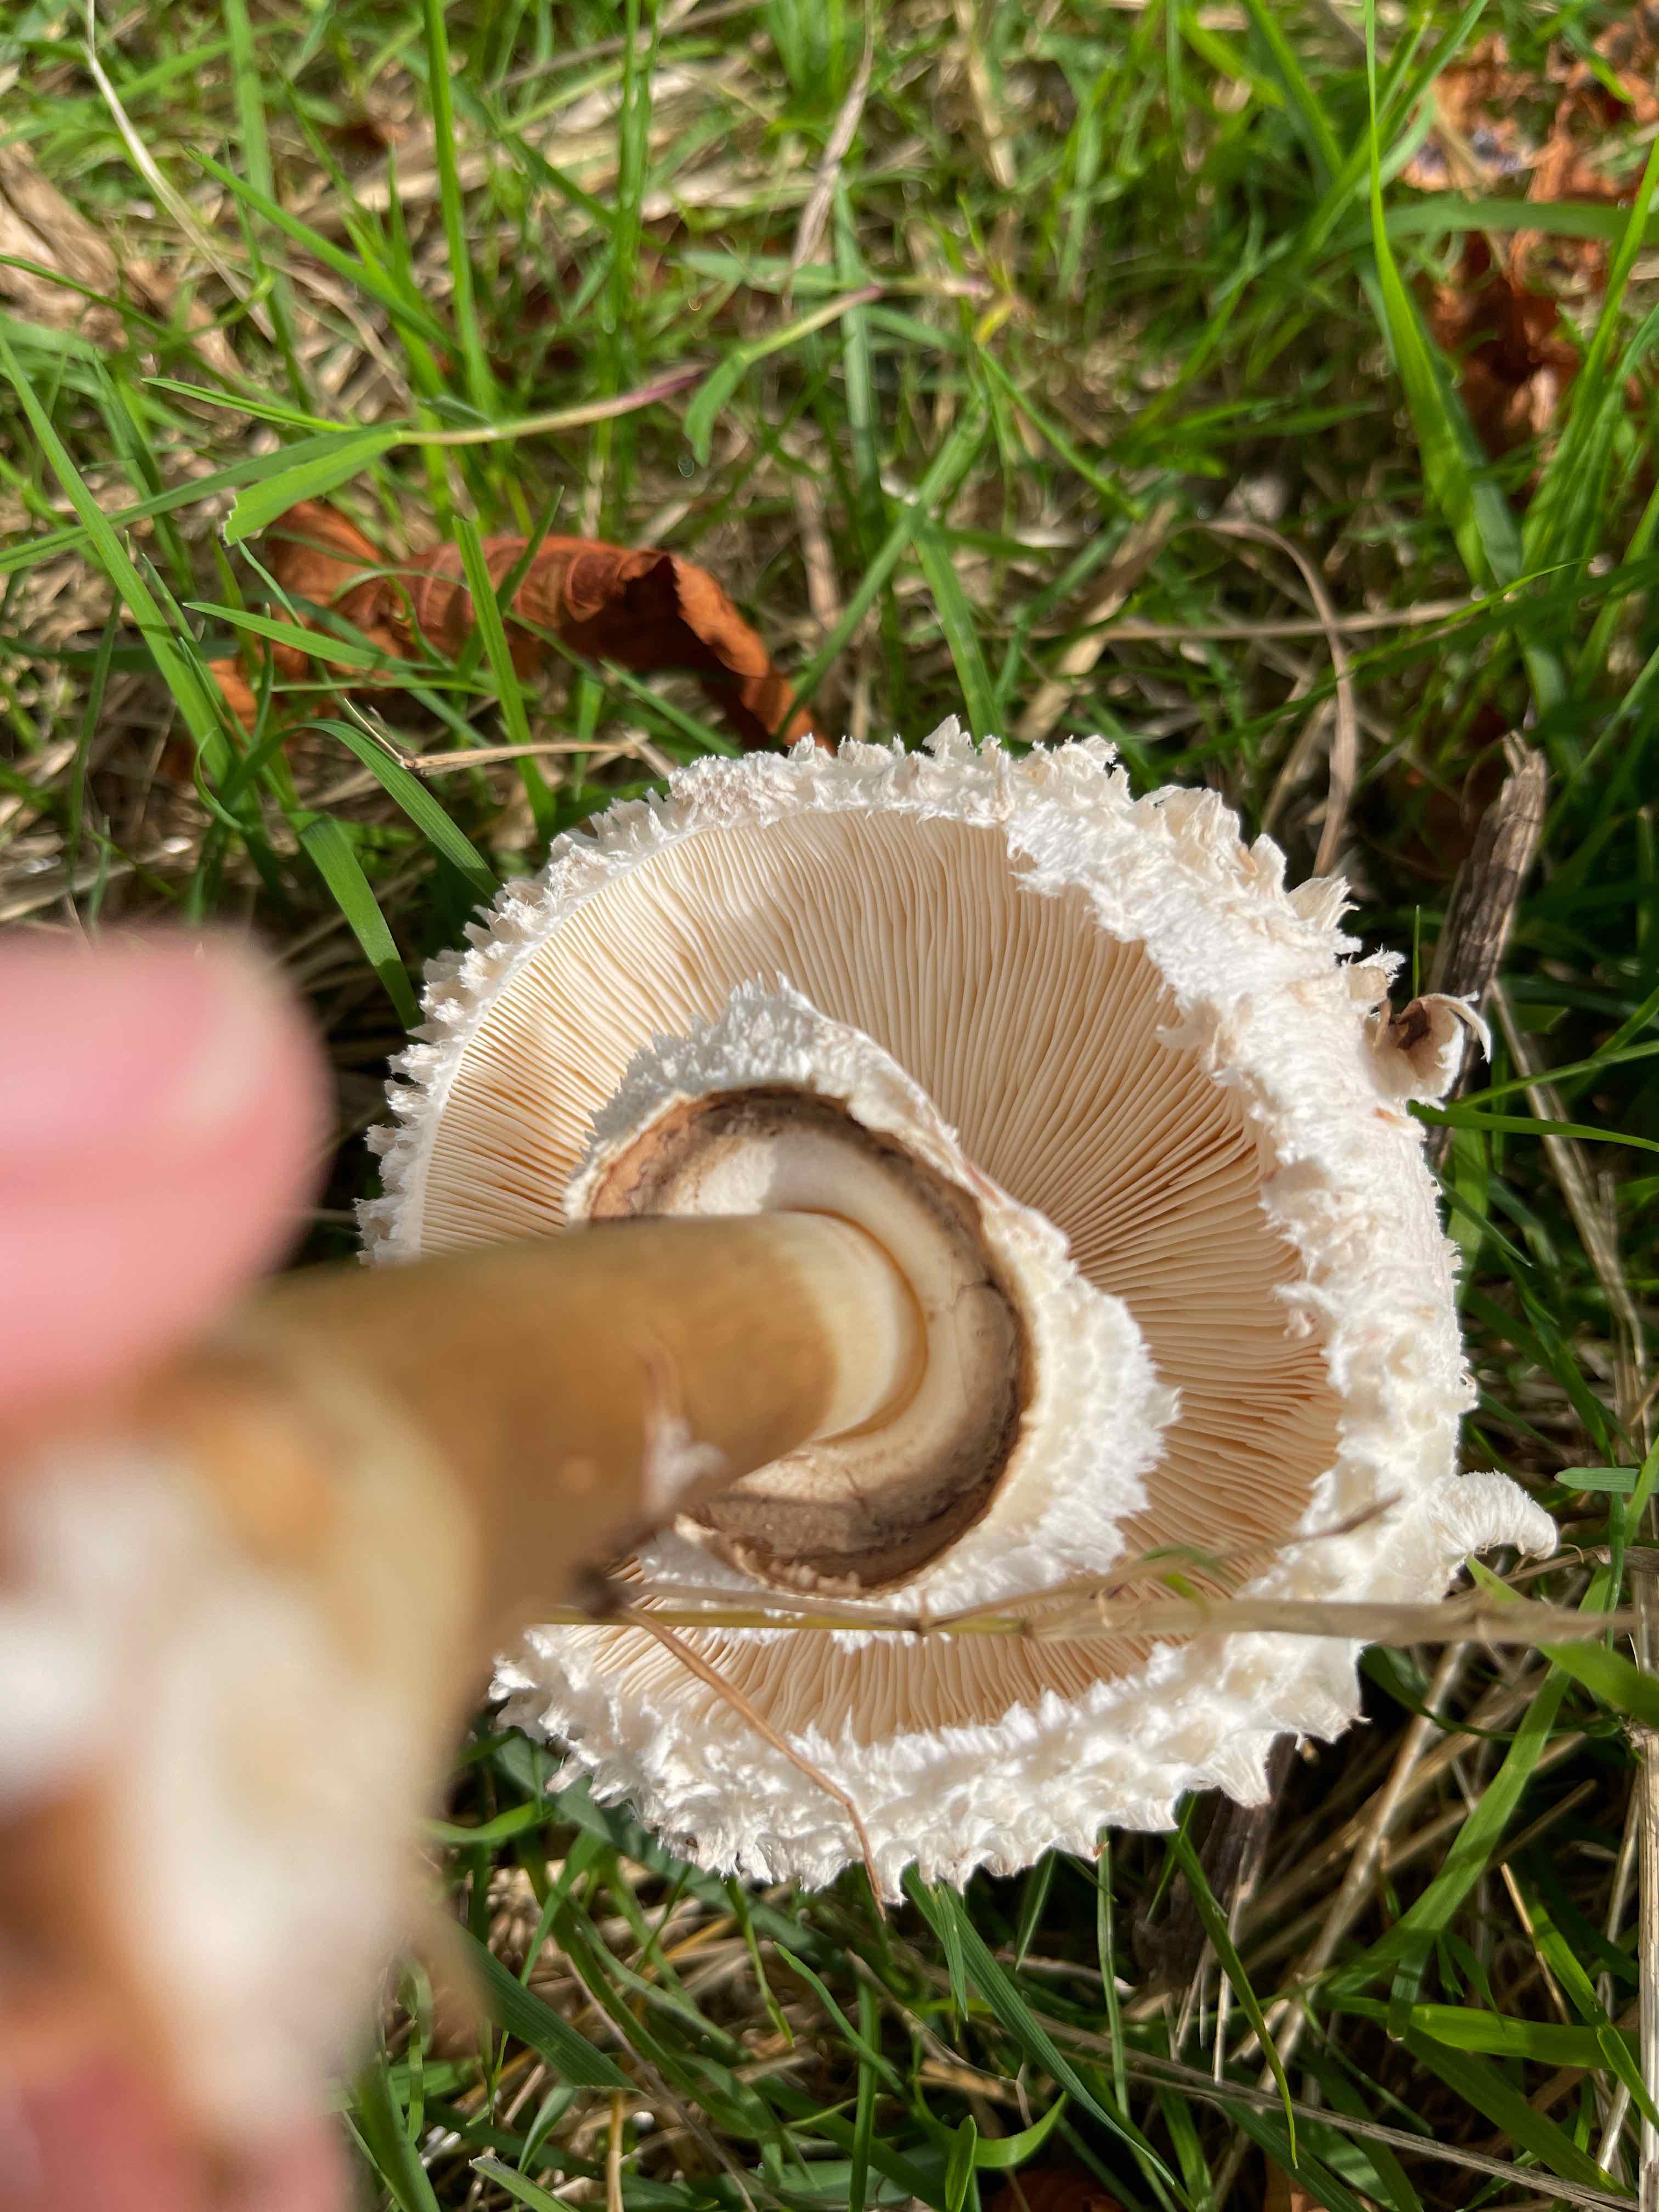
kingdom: Fungi
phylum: Basidiomycota
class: Agaricomycetes
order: Agaricales
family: Agaricaceae
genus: Chlorophyllum
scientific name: Chlorophyllum rhacodes
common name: ægte rabarberhat
